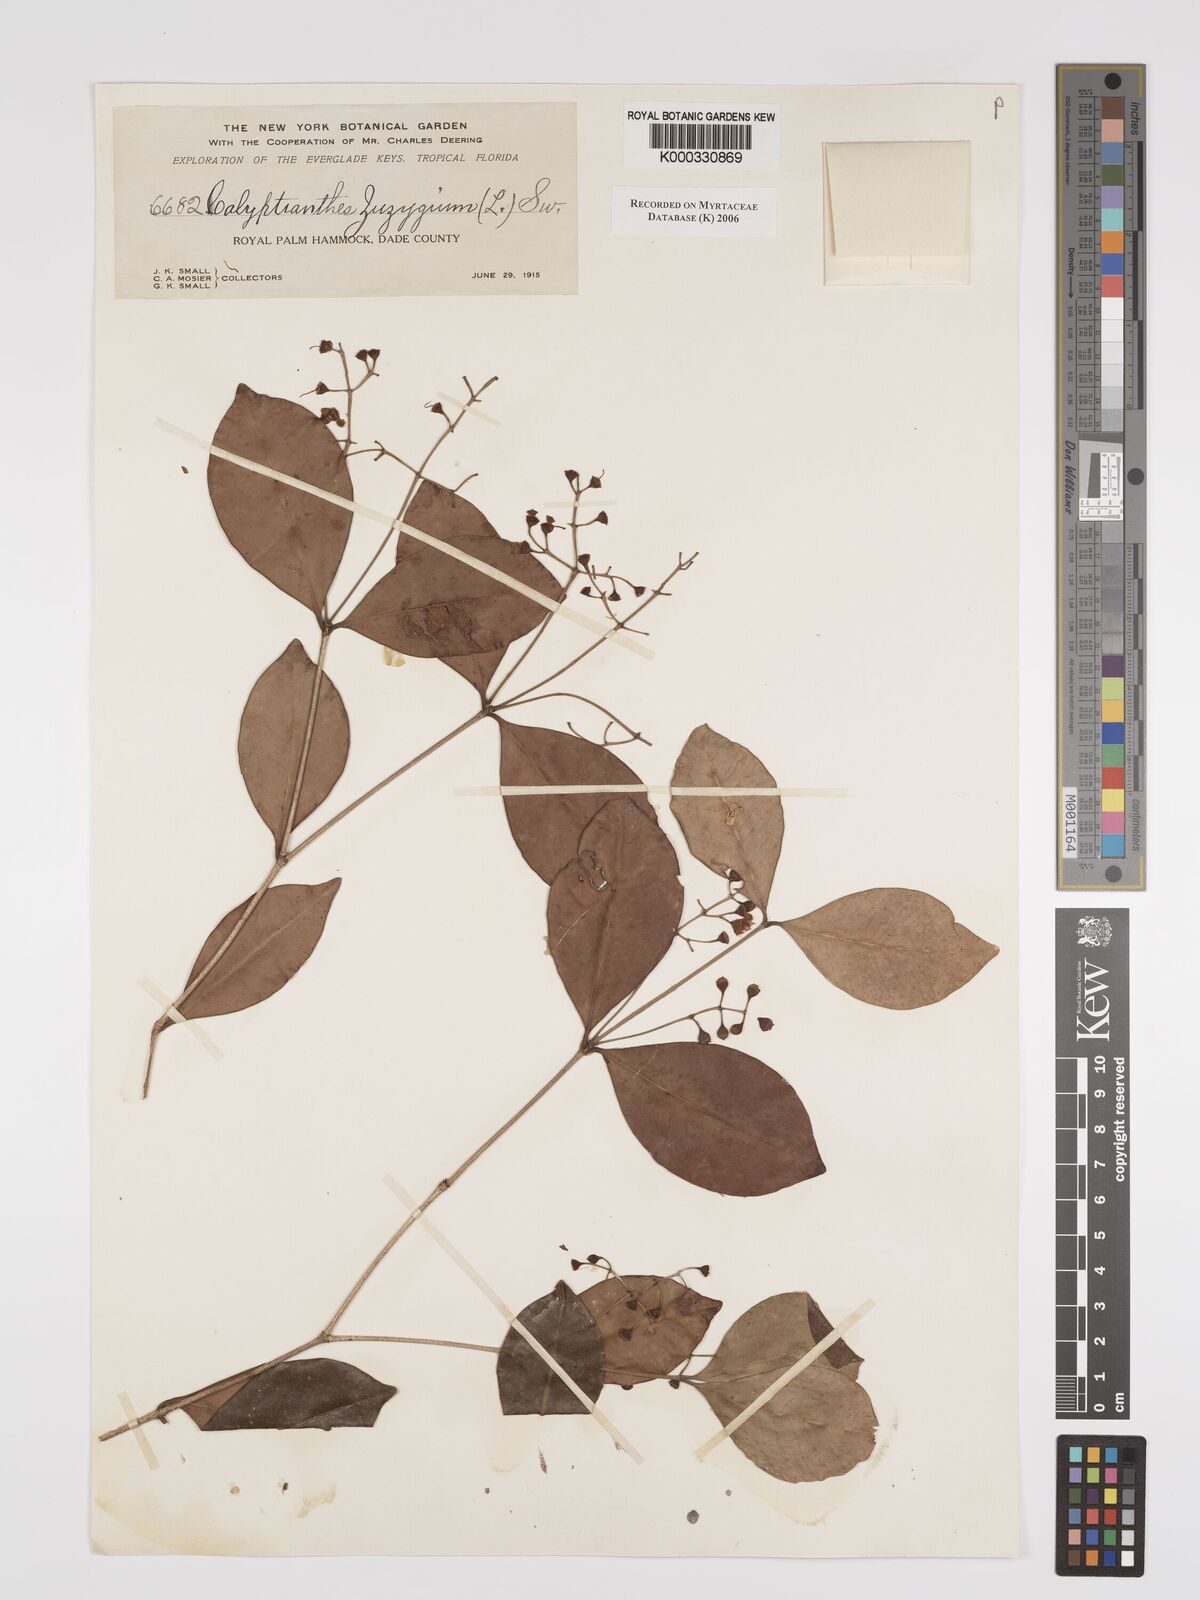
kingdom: Plantae
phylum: Tracheophyta
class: Magnoliopsida
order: Myrtales
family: Myrtaceae
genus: Myrcia
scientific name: Myrcia chytraculia
